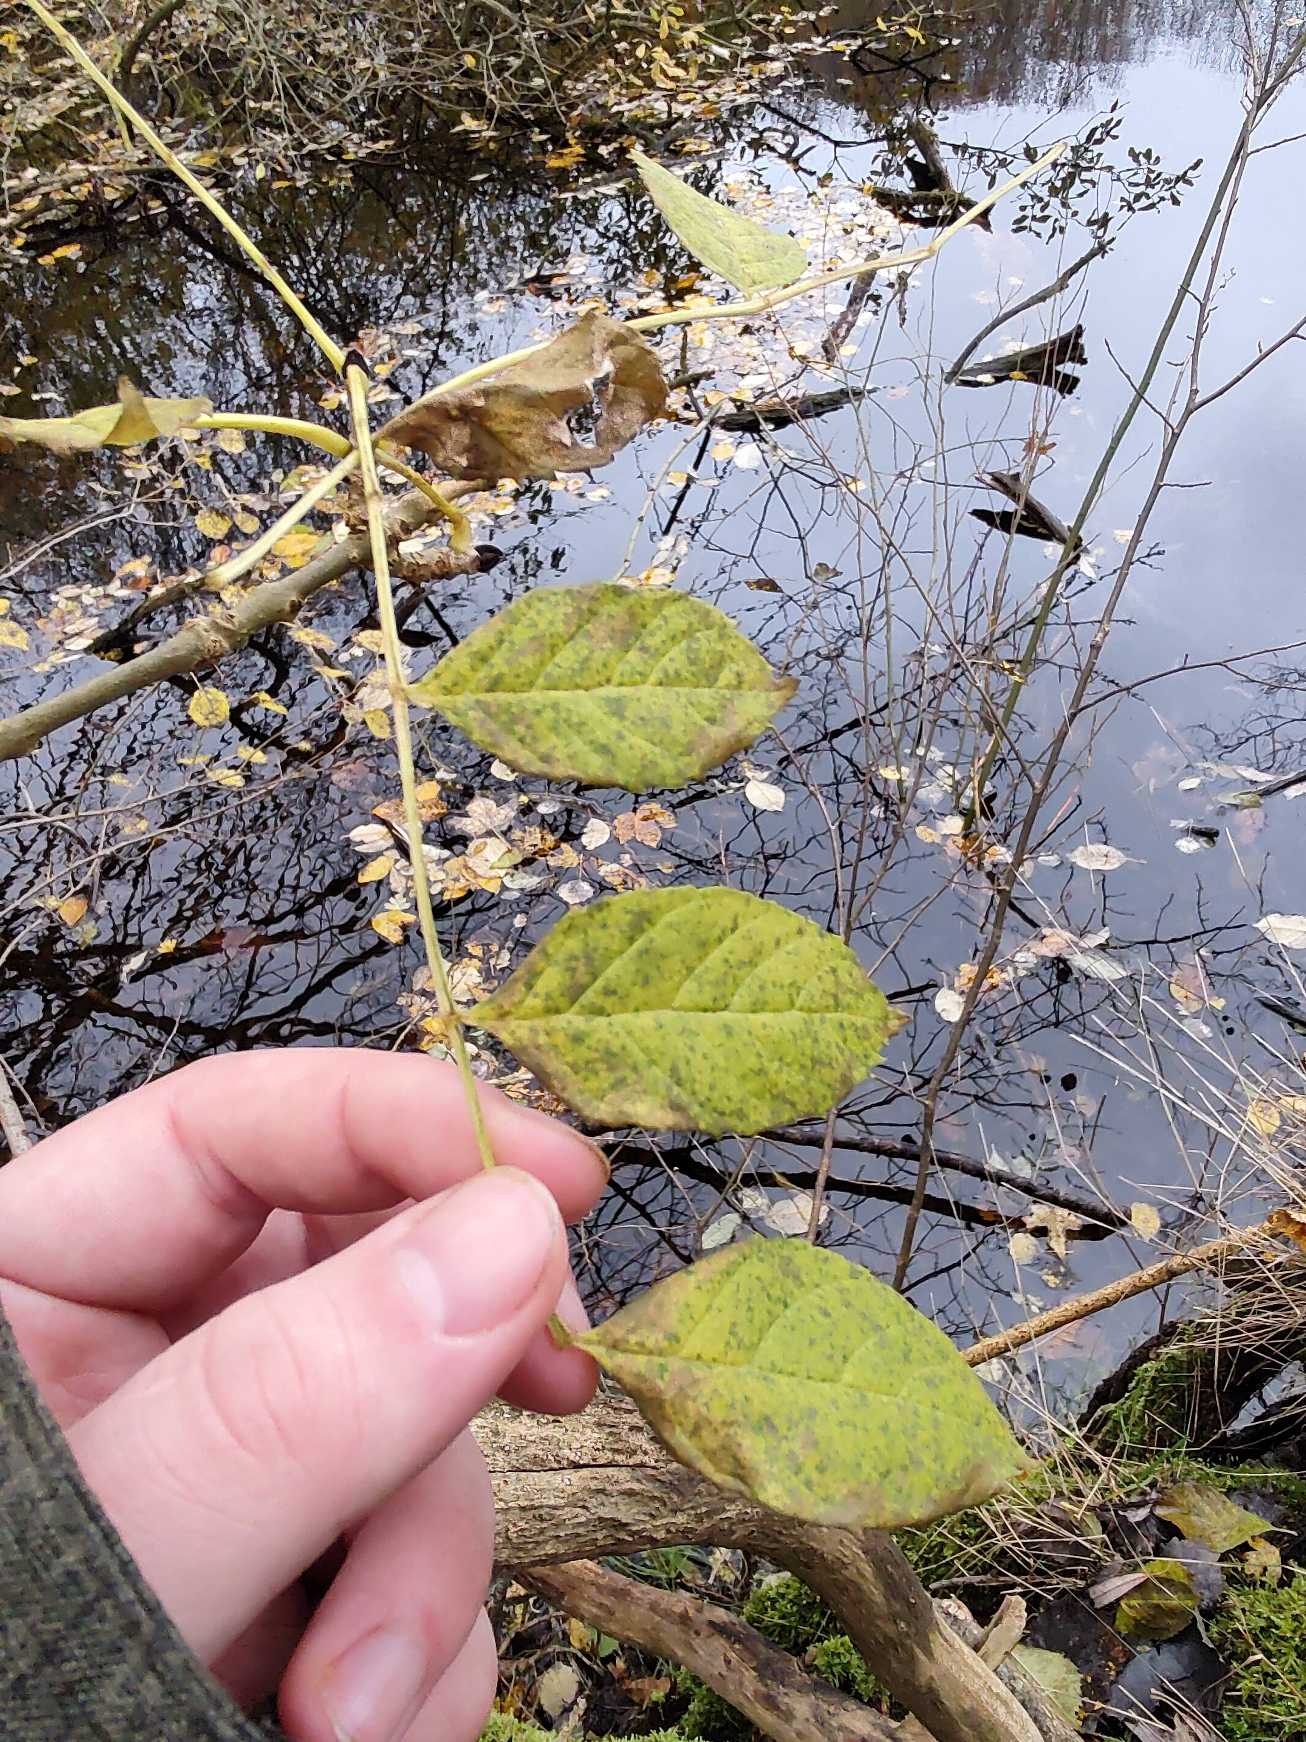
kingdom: Plantae
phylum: Tracheophyta
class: Magnoliopsida
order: Lamiales
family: Oleaceae
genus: Fraxinus
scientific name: Fraxinus excelsior
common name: Ask
